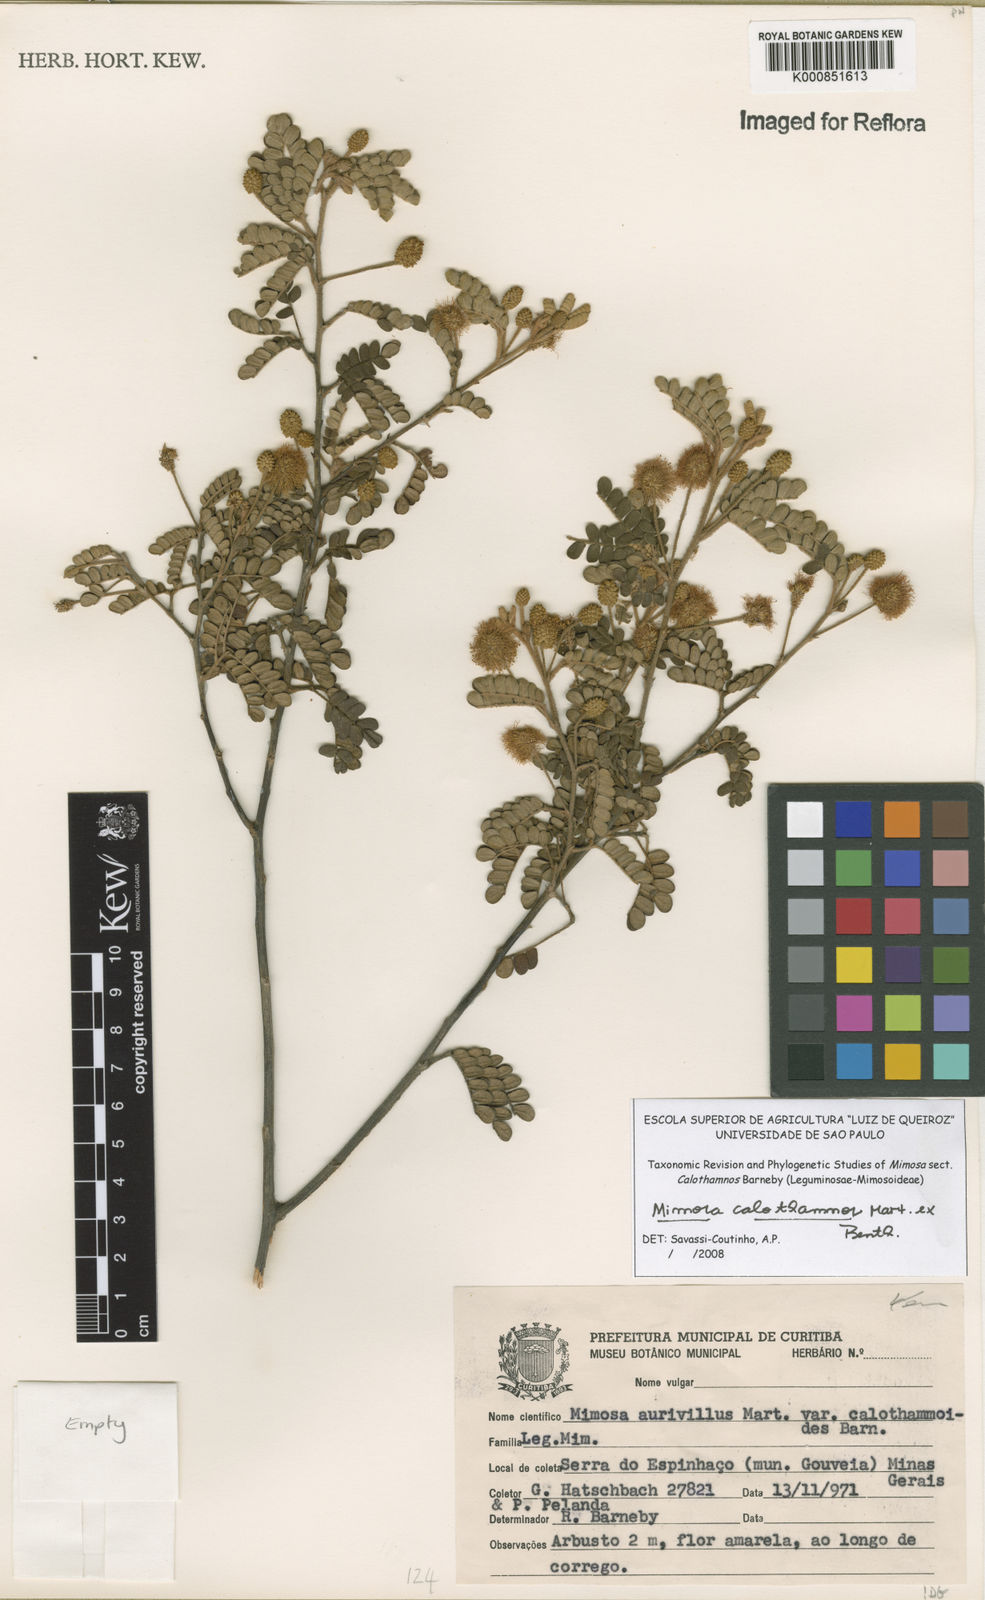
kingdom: Plantae
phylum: Tracheophyta
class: Magnoliopsida
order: Fabales
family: Fabaceae
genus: Mimosa
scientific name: Mimosa aurivillus
